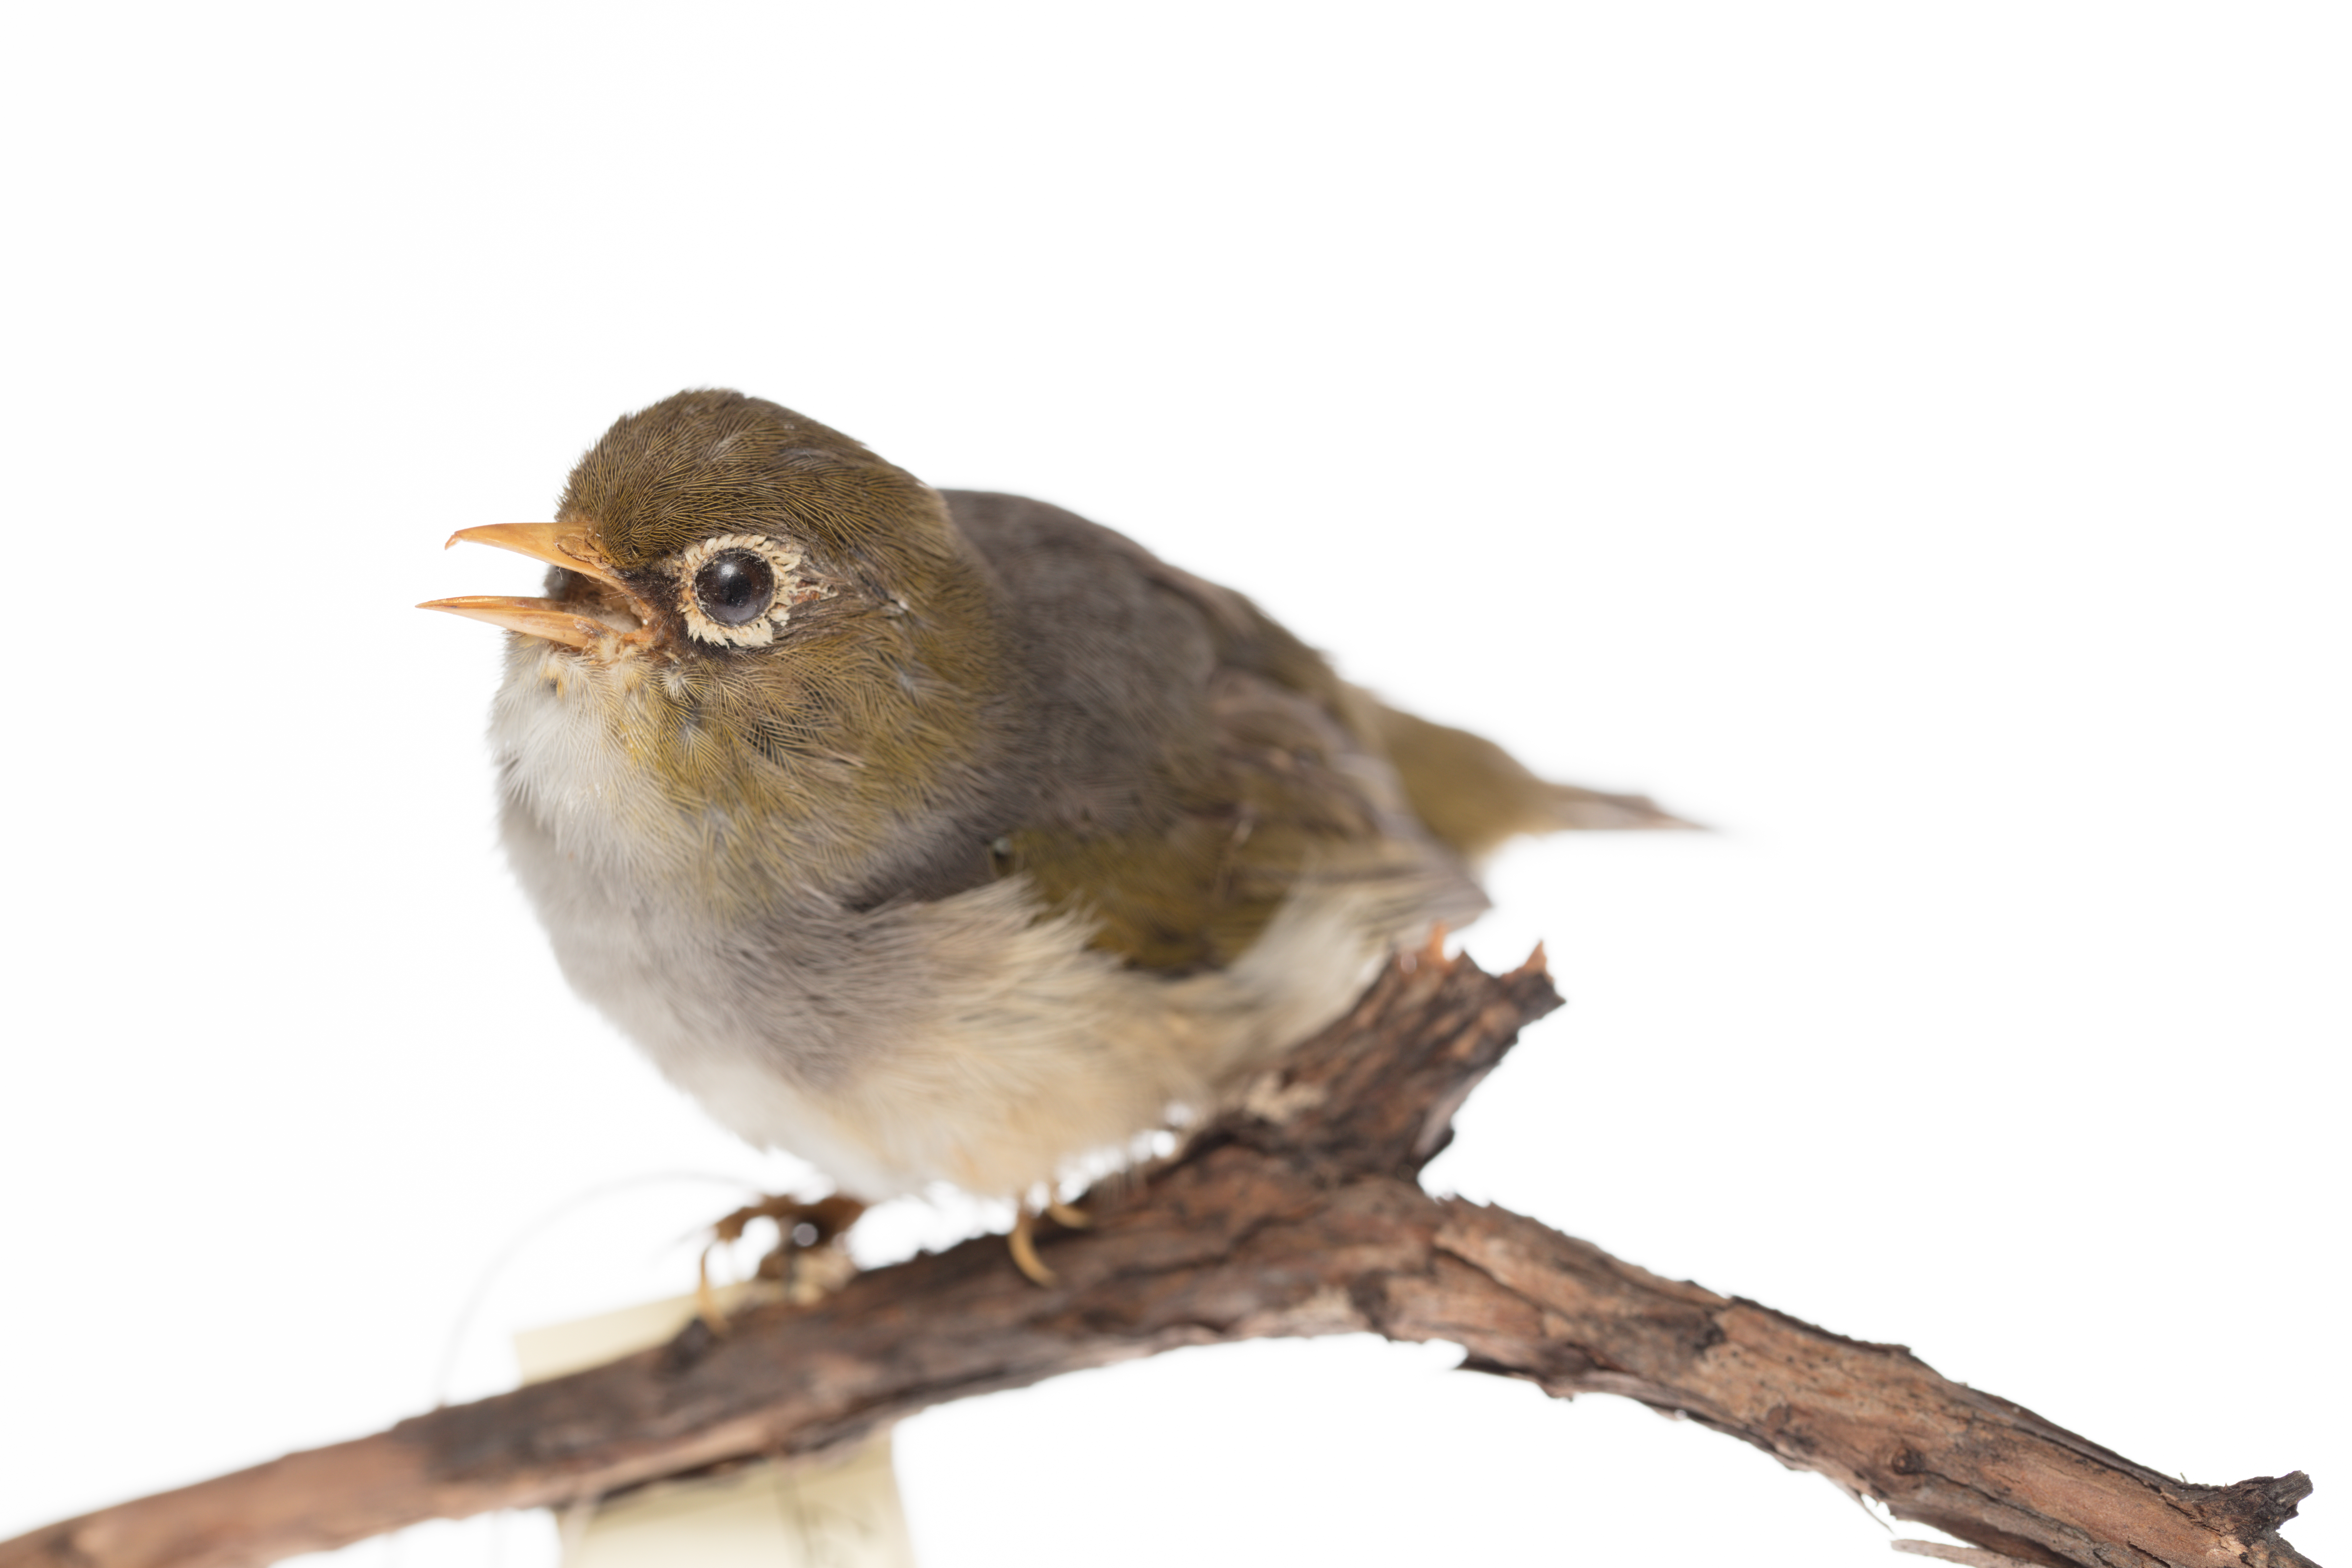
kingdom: Animalia
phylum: Chordata
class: Aves
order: Passeriformes
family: Zosteropidae
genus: Zosterops
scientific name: Zosterops lateralis
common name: Silvereye
